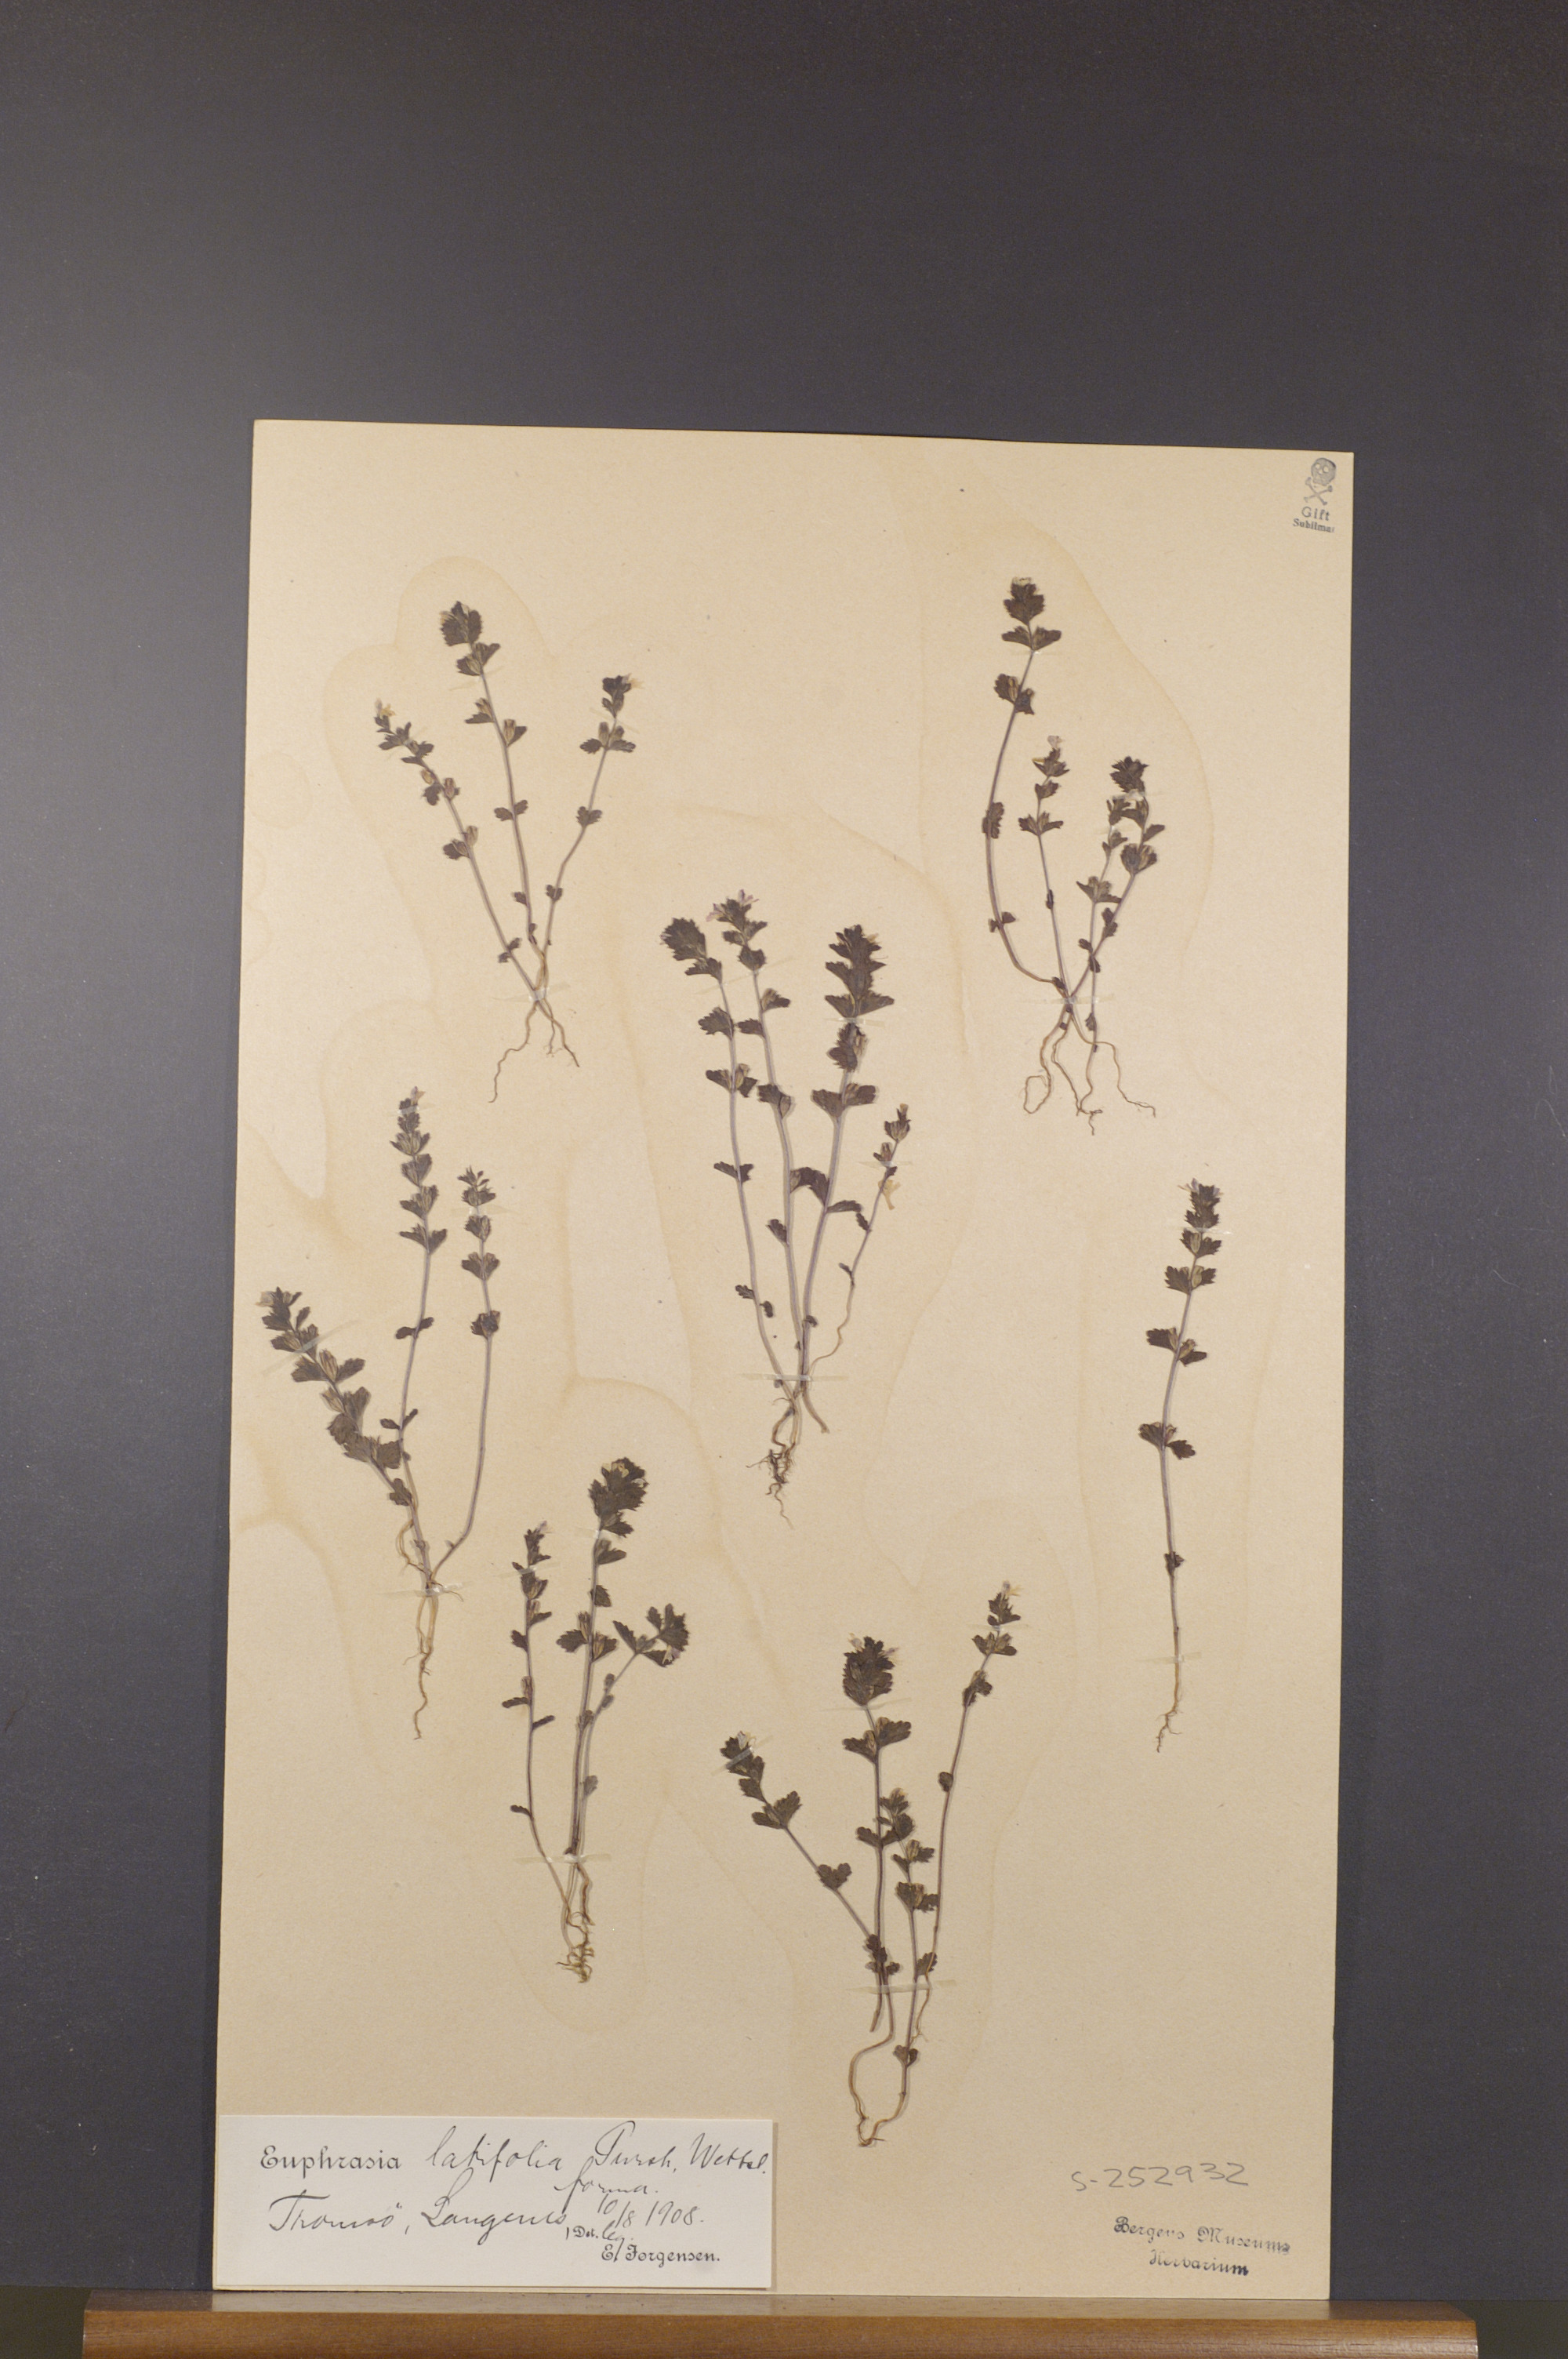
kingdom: Plantae
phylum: Tracheophyta
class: Magnoliopsida
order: Lamiales
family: Orobanchaceae
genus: Euphrasia
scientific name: Euphrasia wettsteinii
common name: Wettstein's eyebright
